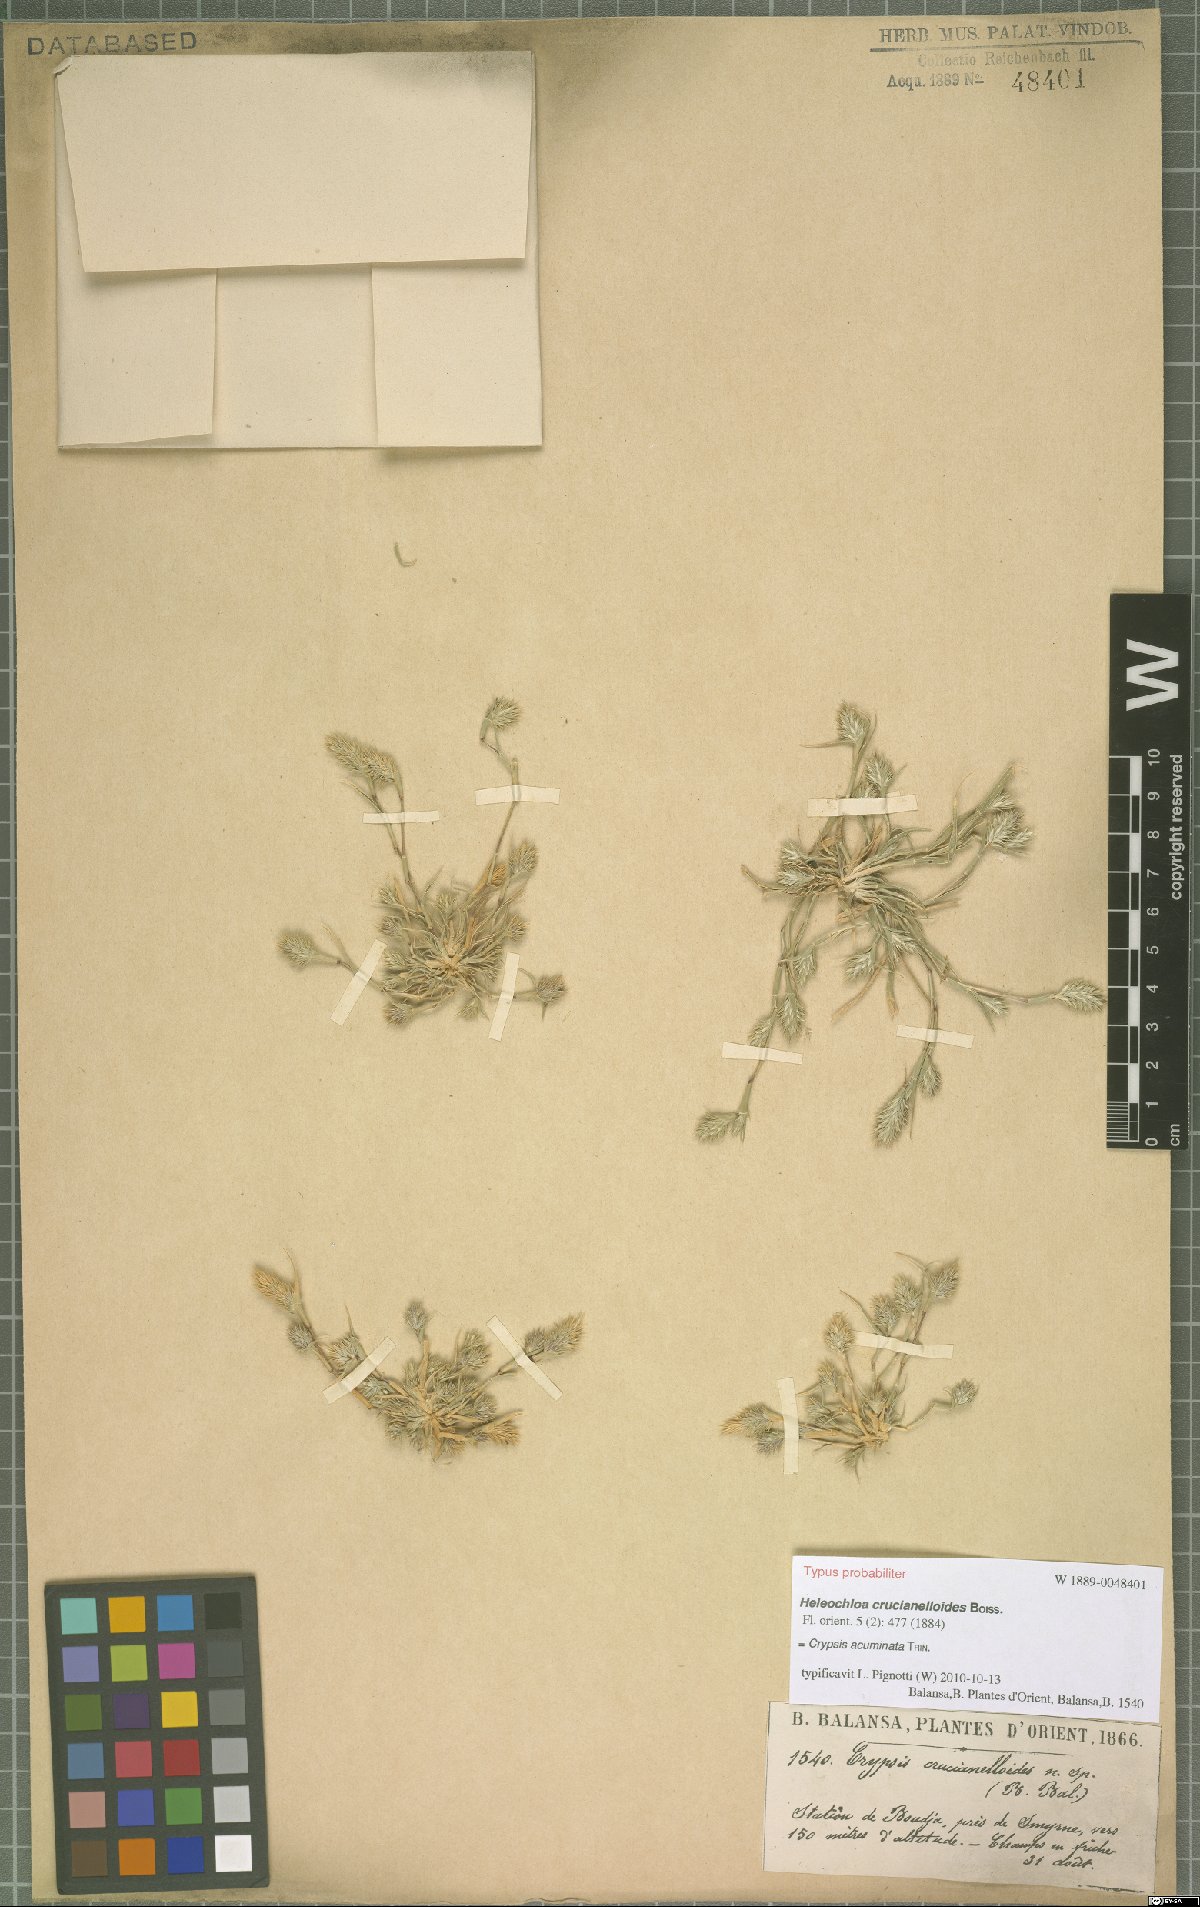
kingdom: Plantae
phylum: Tracheophyta
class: Liliopsida
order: Poales
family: Poaceae
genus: Sporobolus
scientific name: Sporobolus borszczowii
